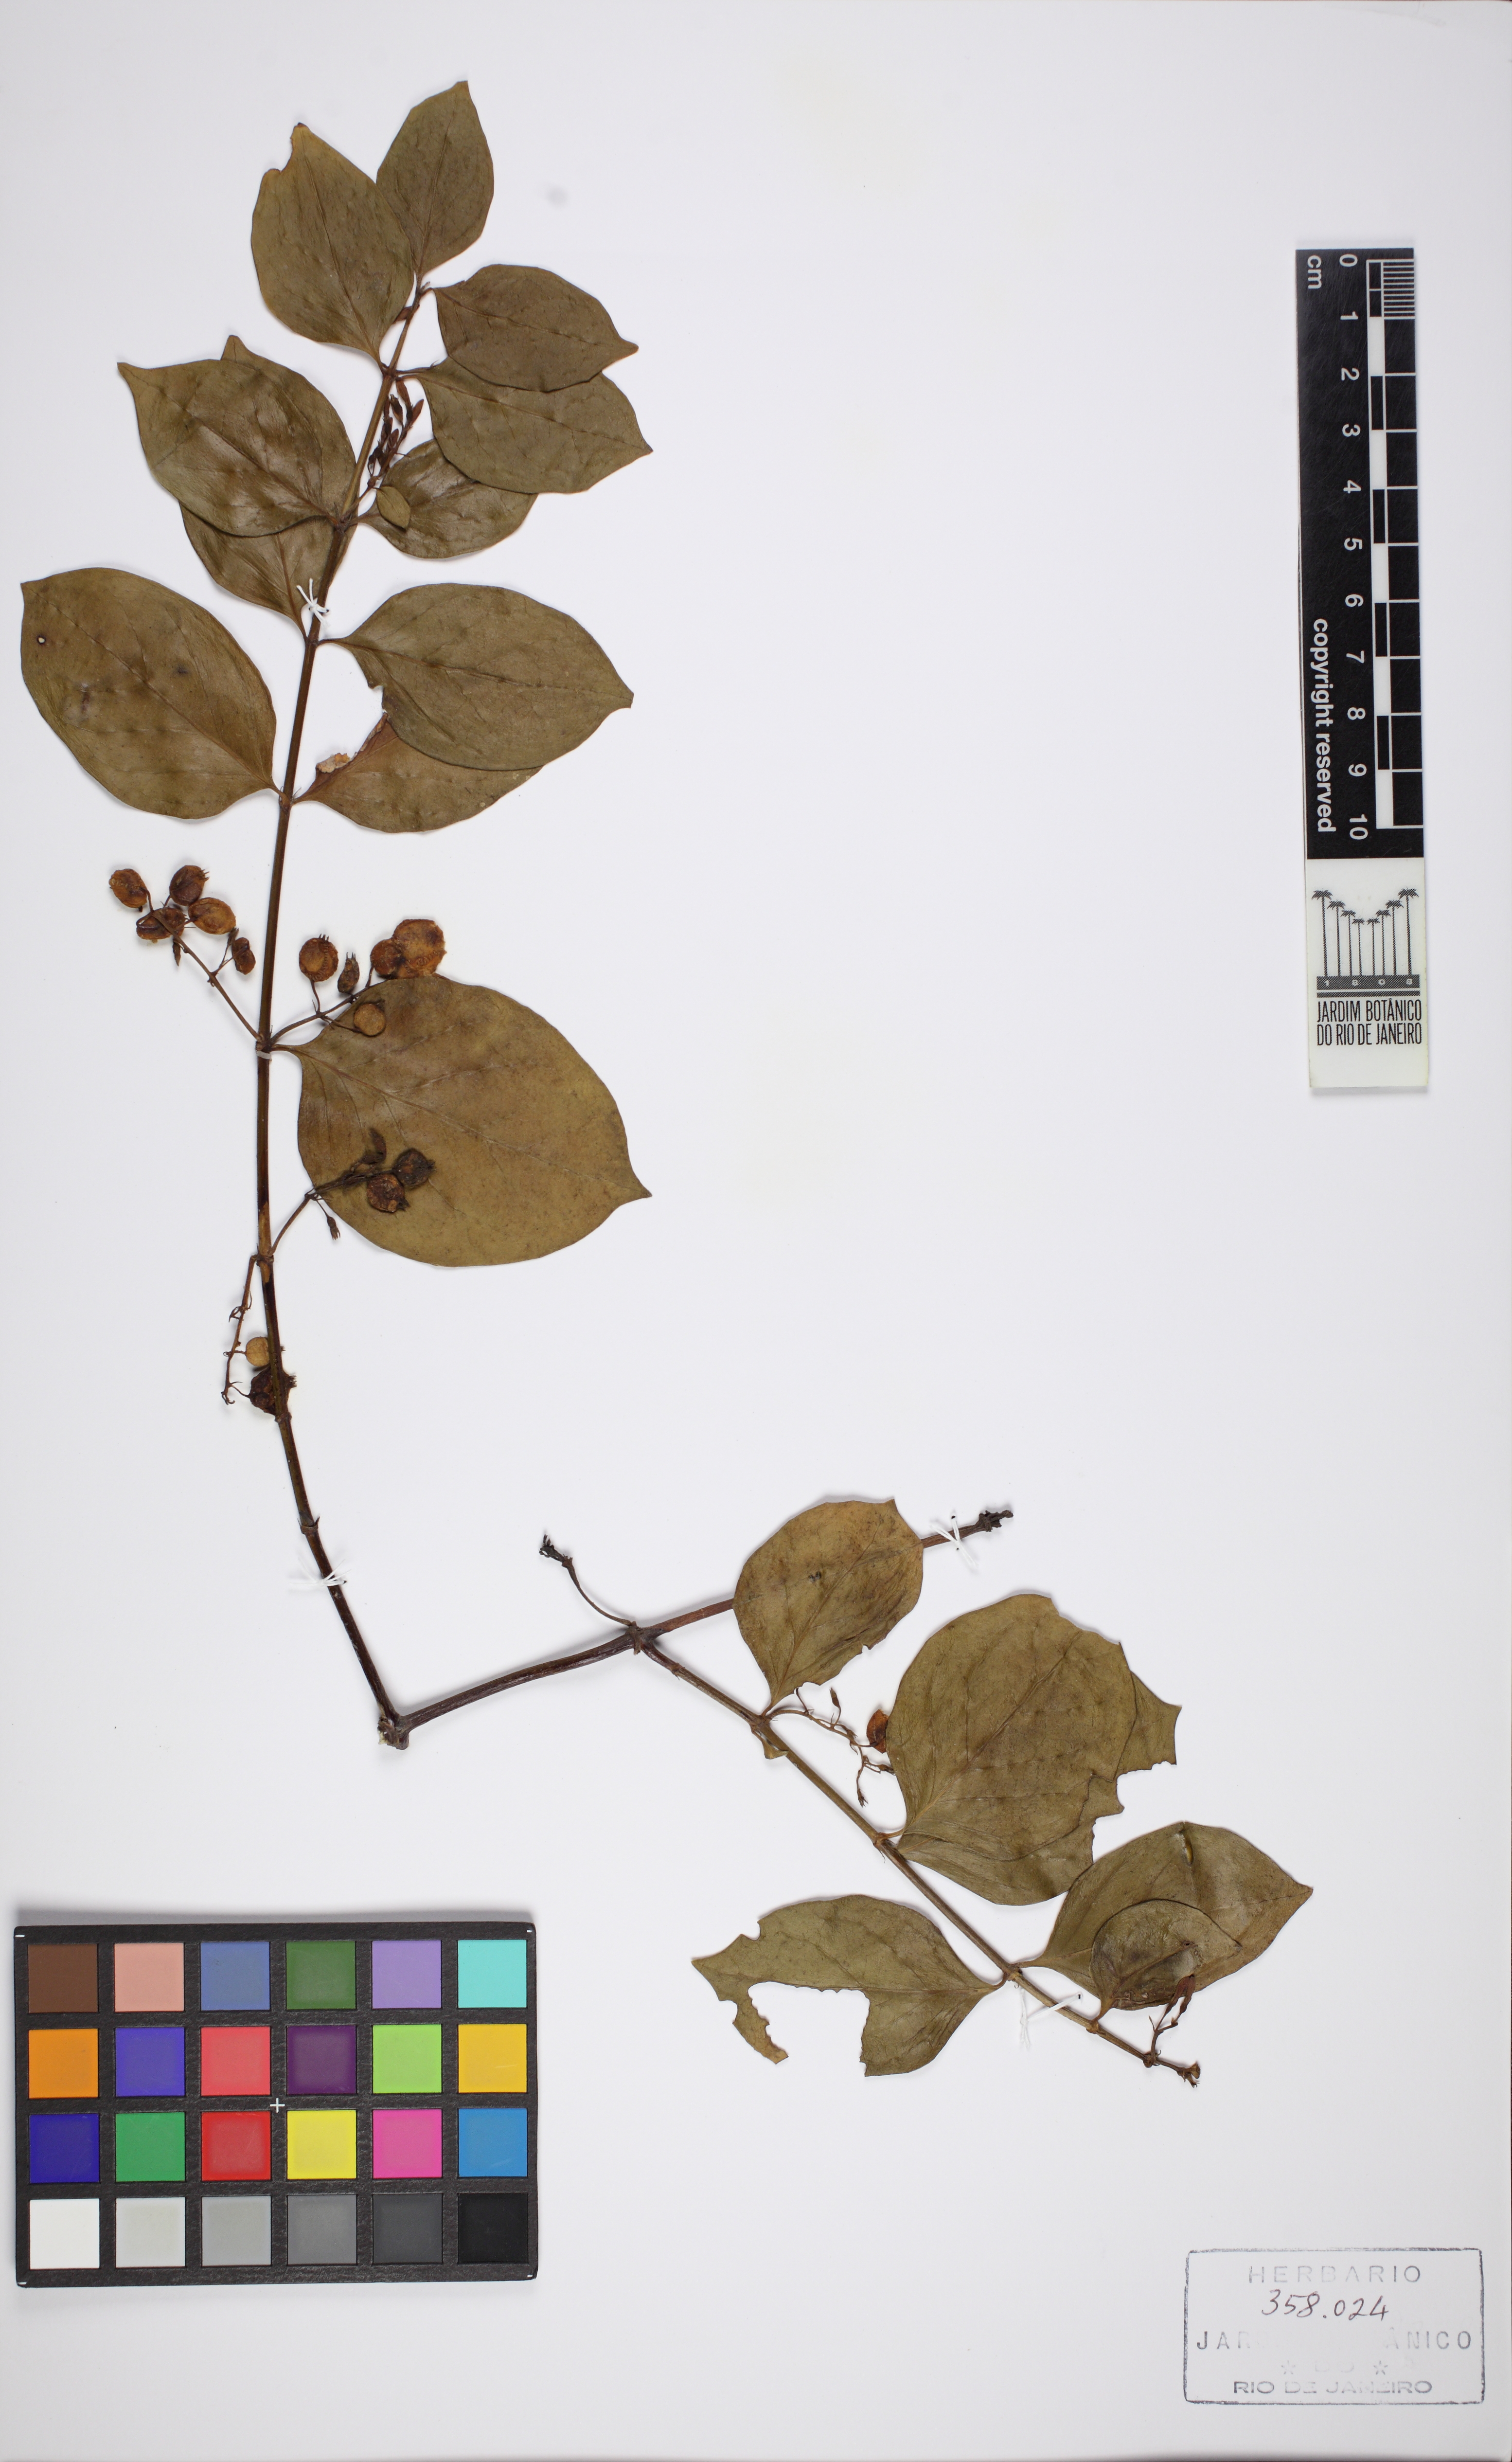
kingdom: Plantae
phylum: Tracheophyta
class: Magnoliopsida
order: Gentianales
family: Rubiaceae
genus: Chiococca
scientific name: Chiococca alba
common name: Snowberry
